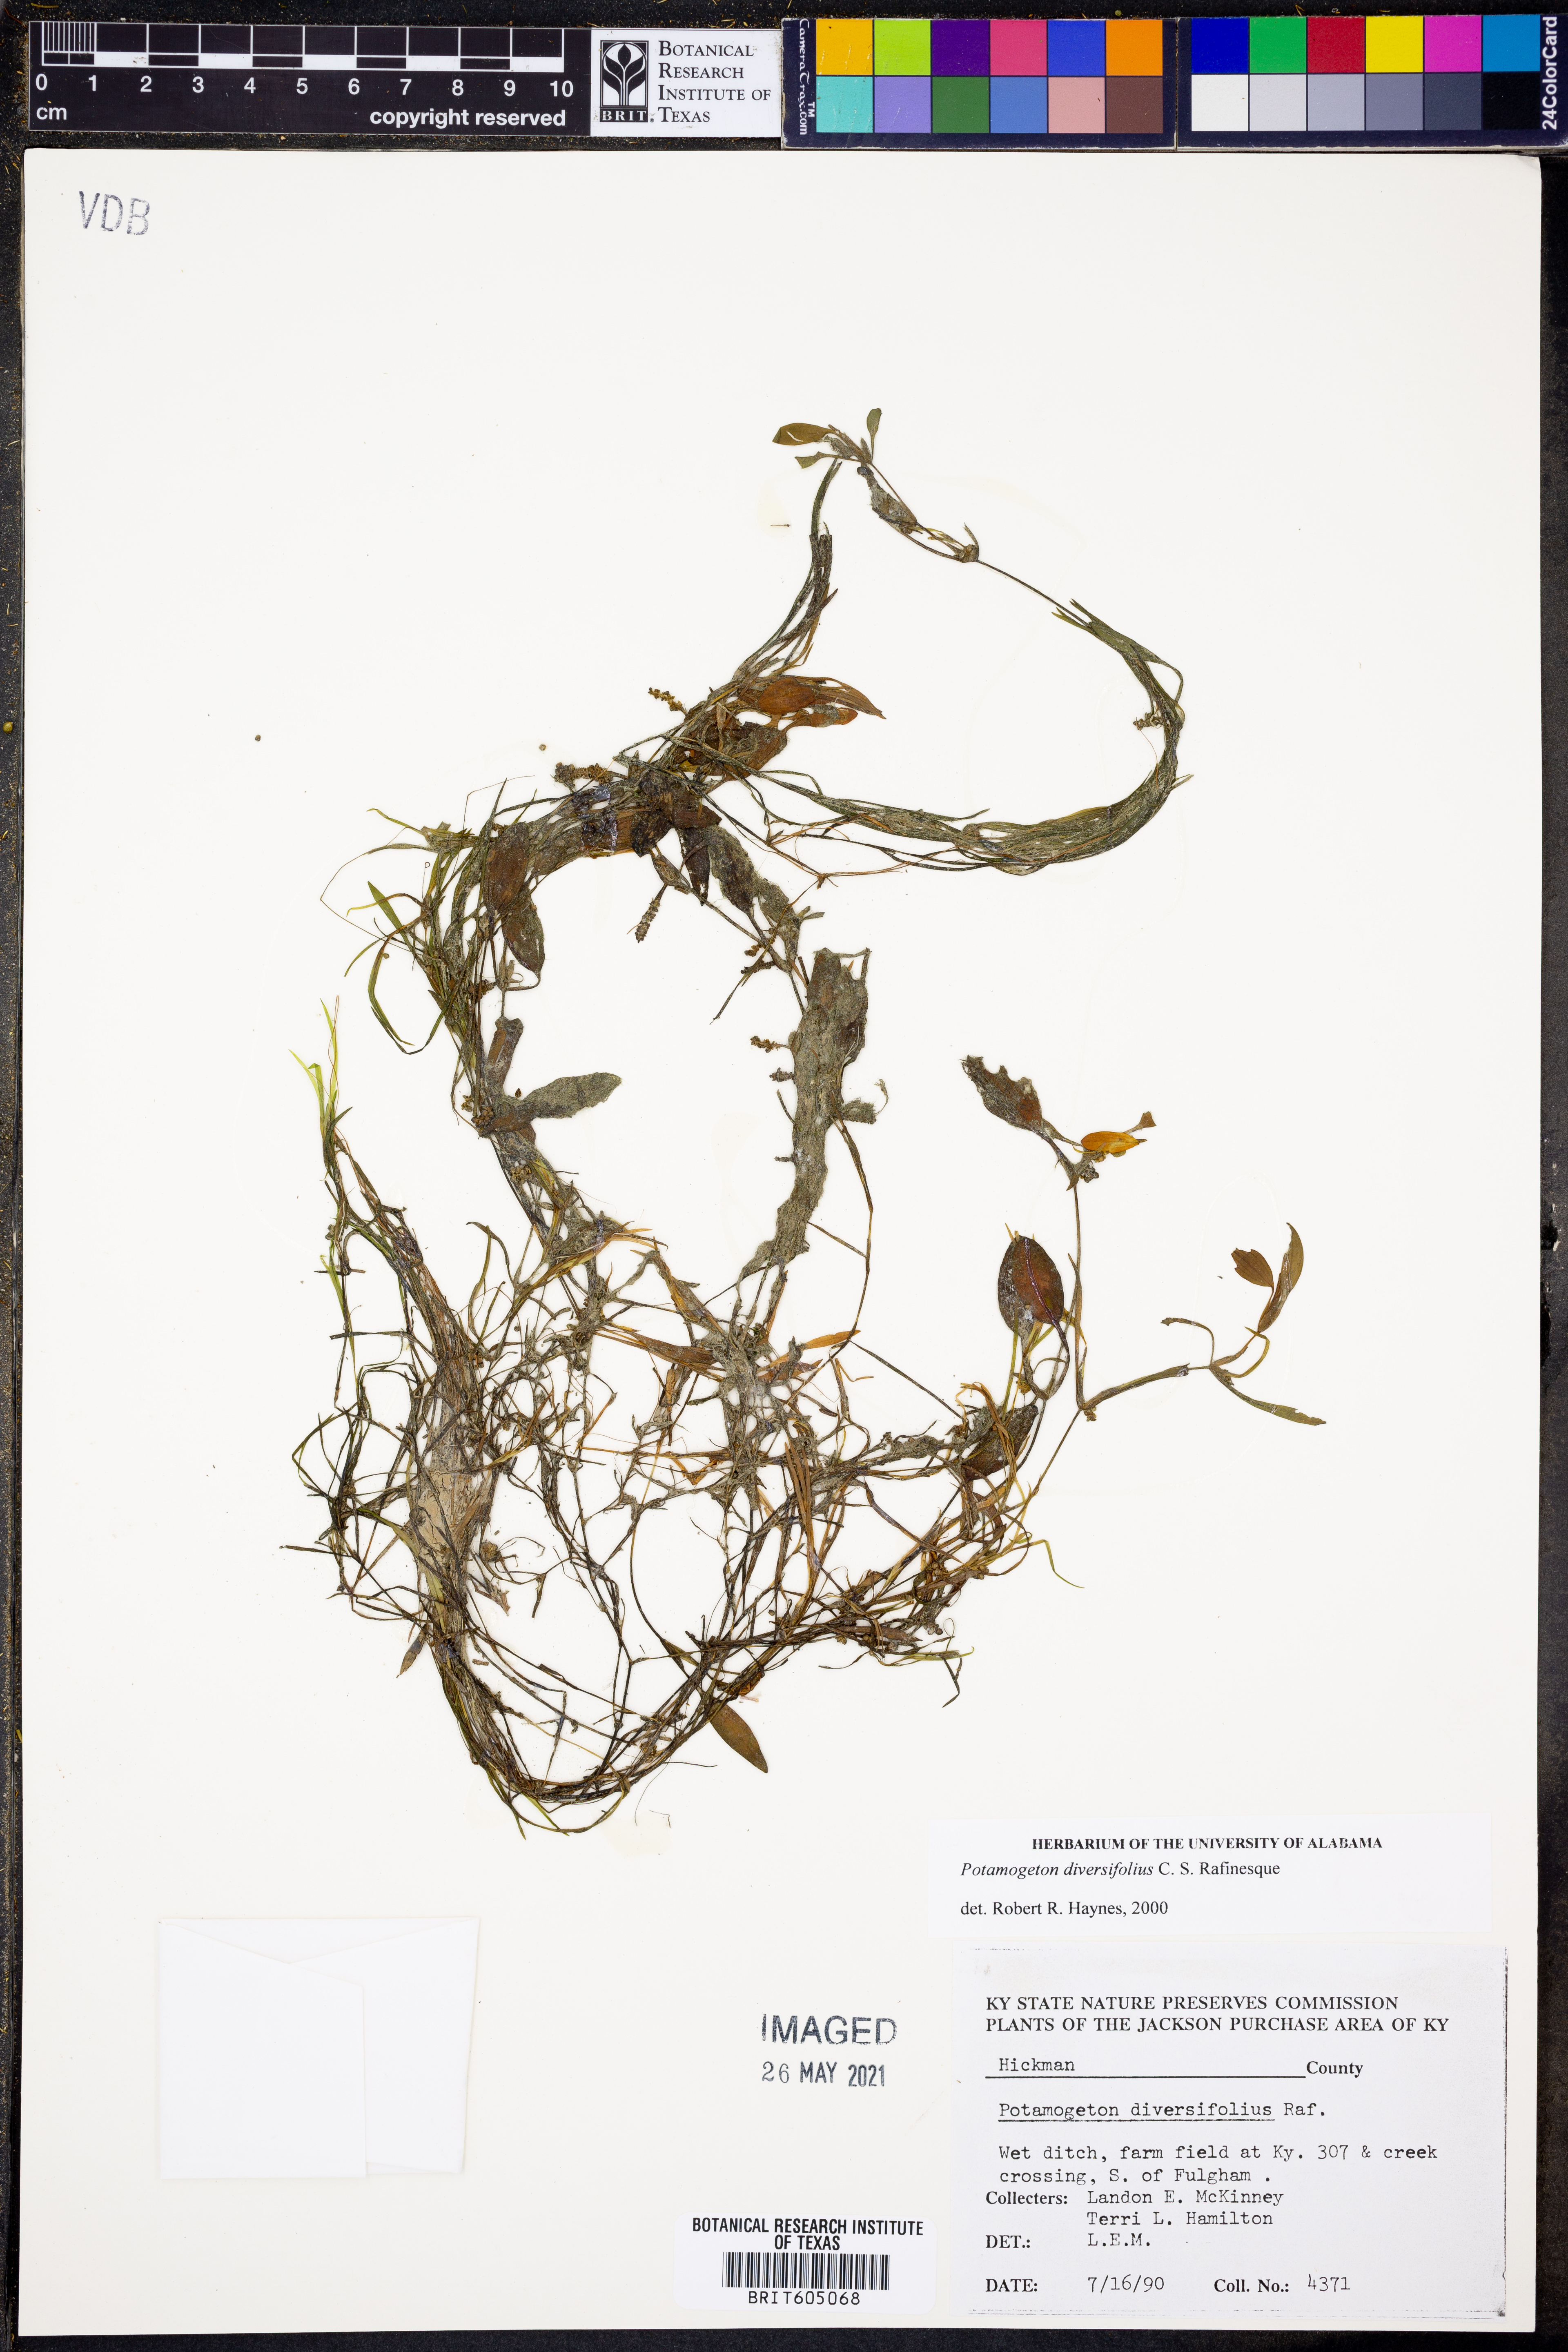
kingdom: Plantae
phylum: Tracheophyta
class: Liliopsida
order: Alismatales
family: Potamogetonaceae
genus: Potamogeton
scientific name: Potamogeton diversifolius
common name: Water-thread pondweed
